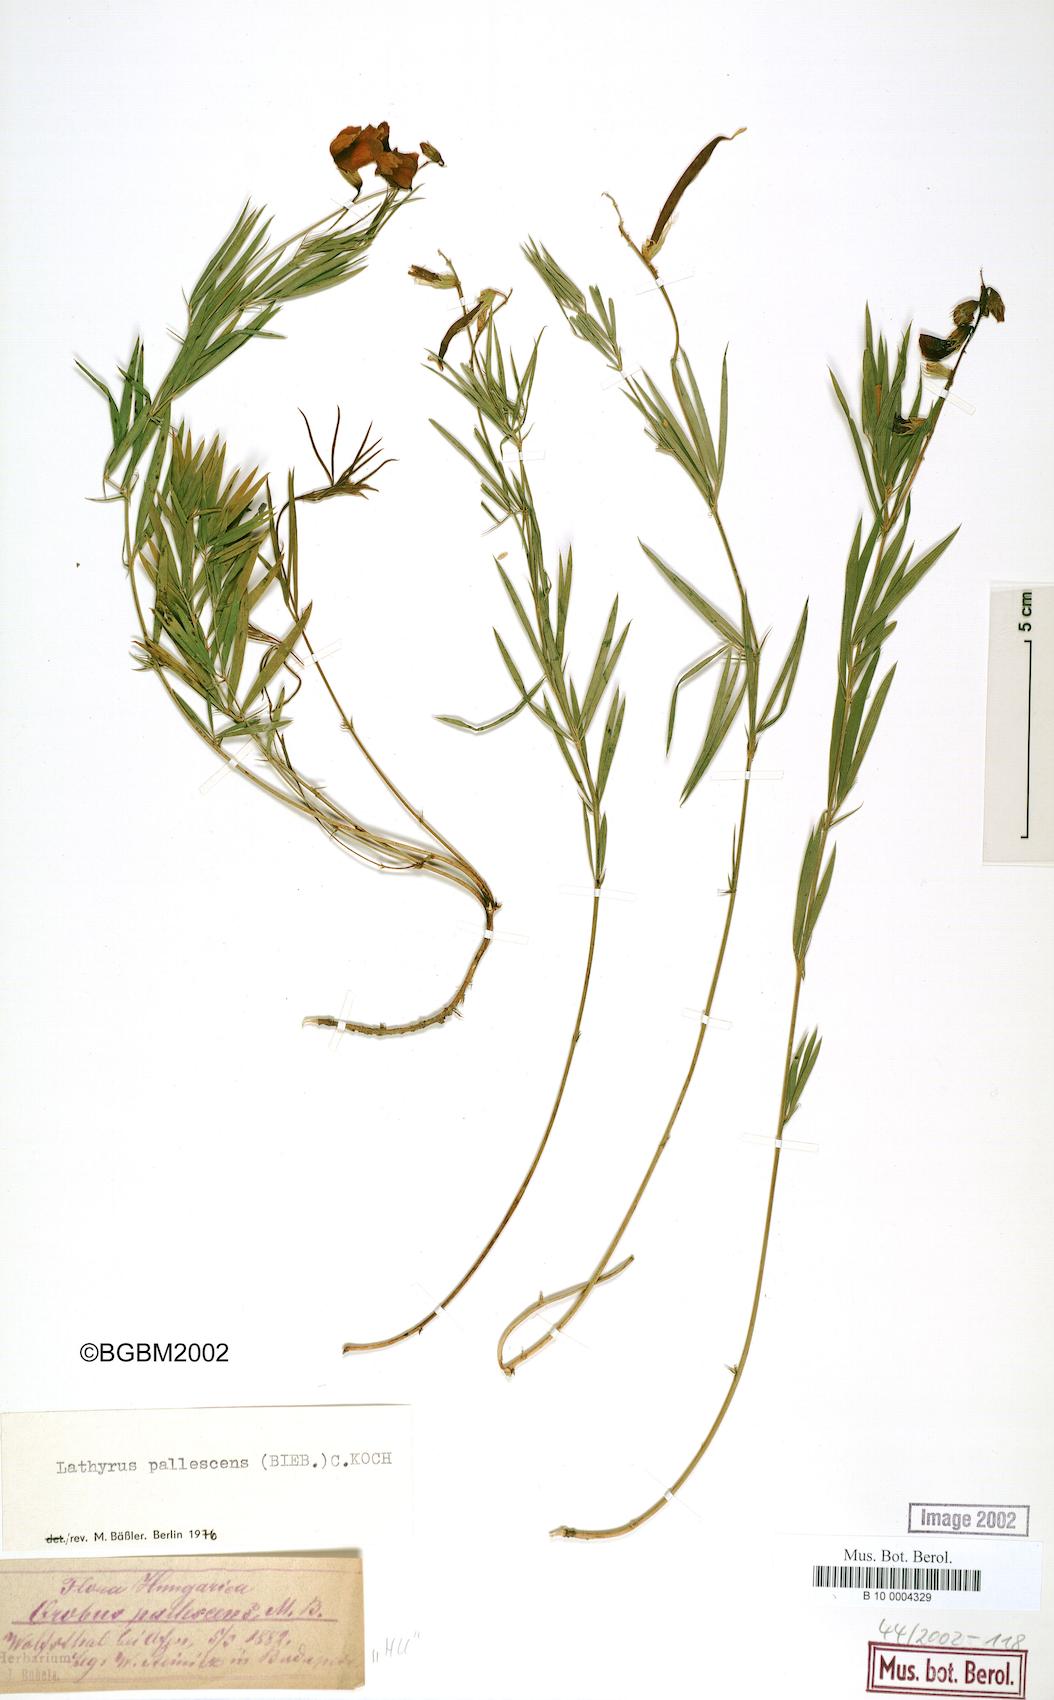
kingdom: Plantae
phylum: Tracheophyta
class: Magnoliopsida
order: Fabales
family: Fabaceae
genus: Lathyrus
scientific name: Lathyrus pallescens
